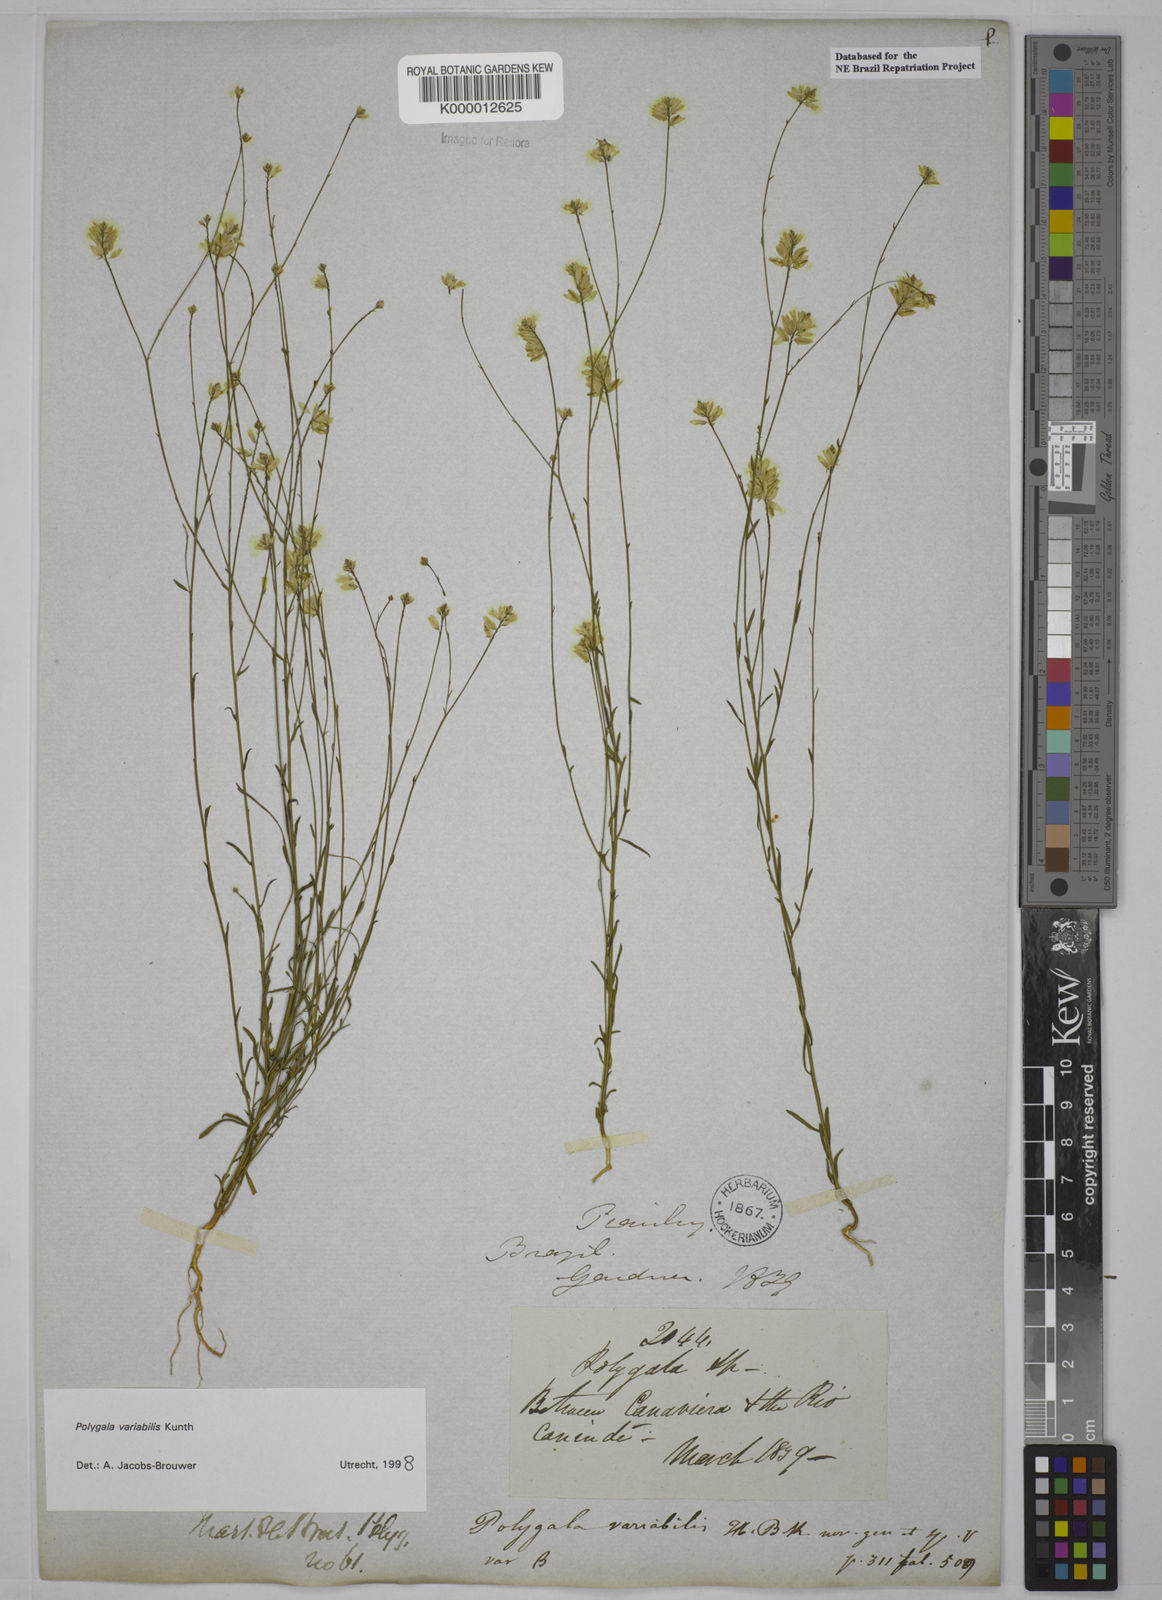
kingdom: Plantae
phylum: Tracheophyta
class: Magnoliopsida
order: Fabales
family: Polygalaceae
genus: Polygala
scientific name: Polygala trichosperma
